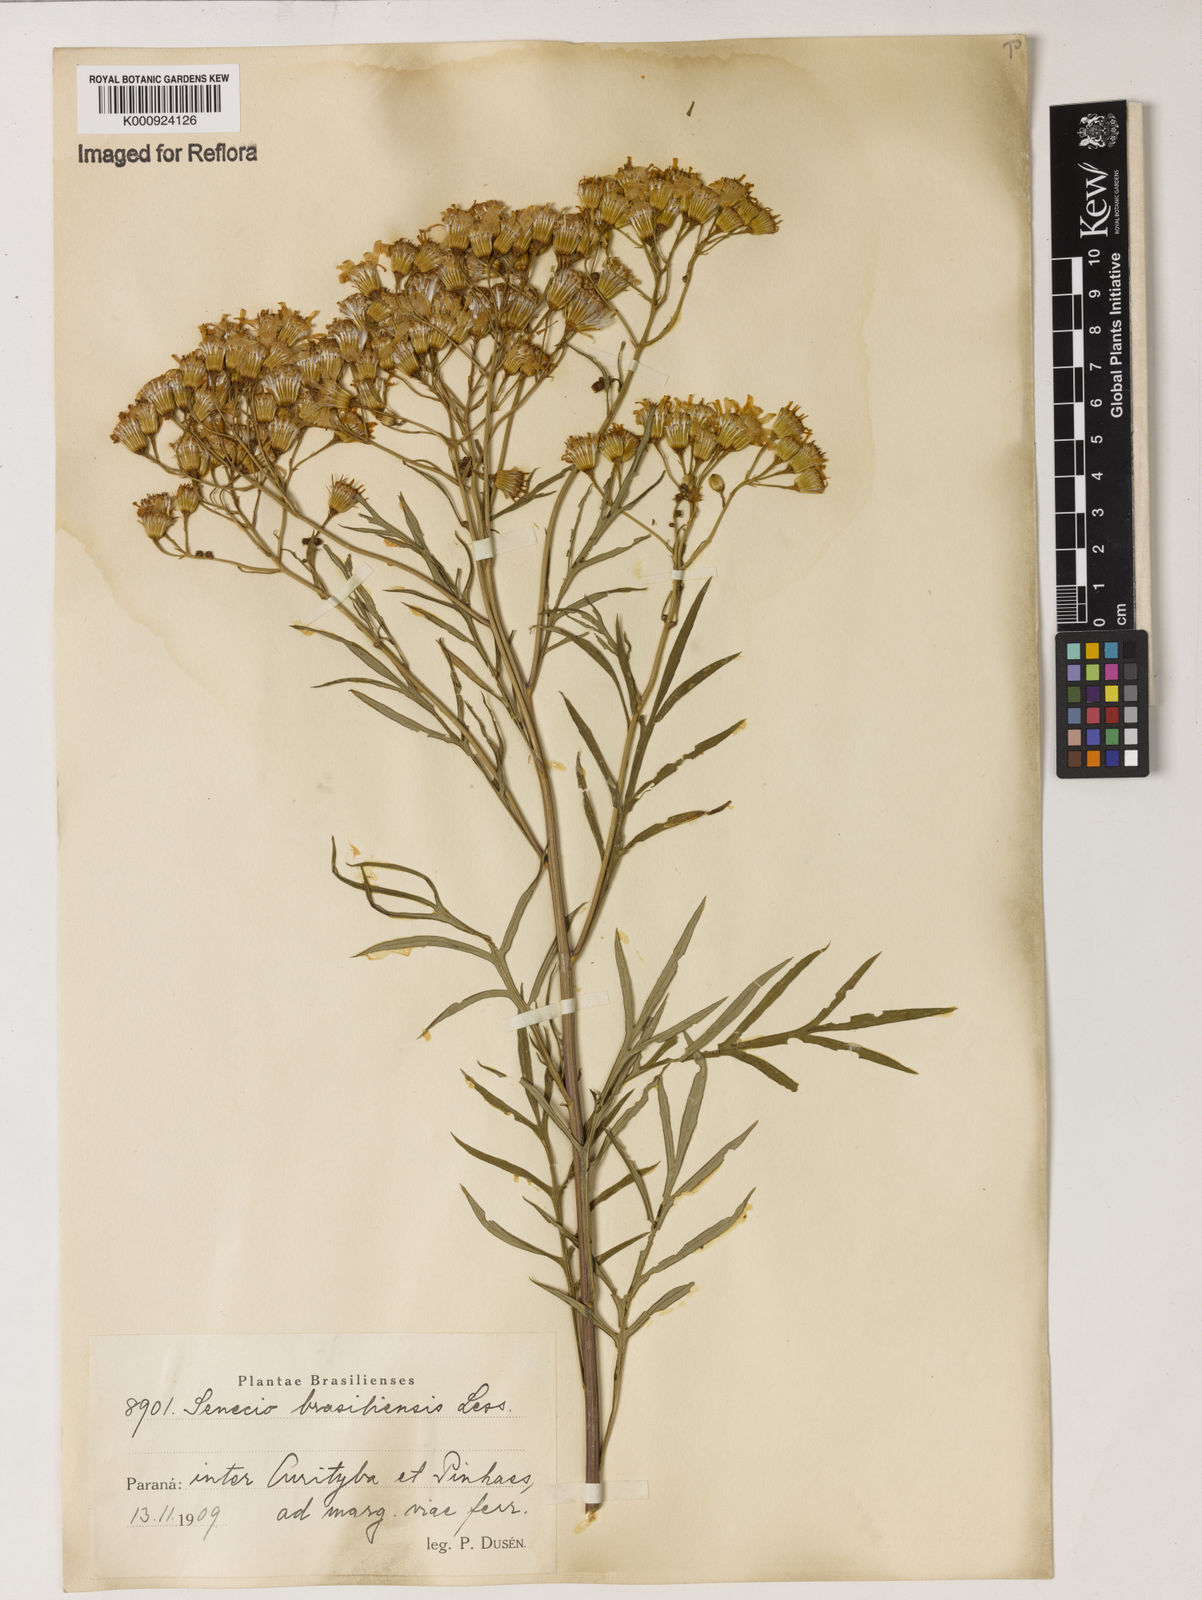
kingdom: Plantae
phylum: Tracheophyta
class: Magnoliopsida
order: Asterales
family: Asteraceae
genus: Senecio
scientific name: Senecio brasiliensis
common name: Hemp-leaf ragwort
